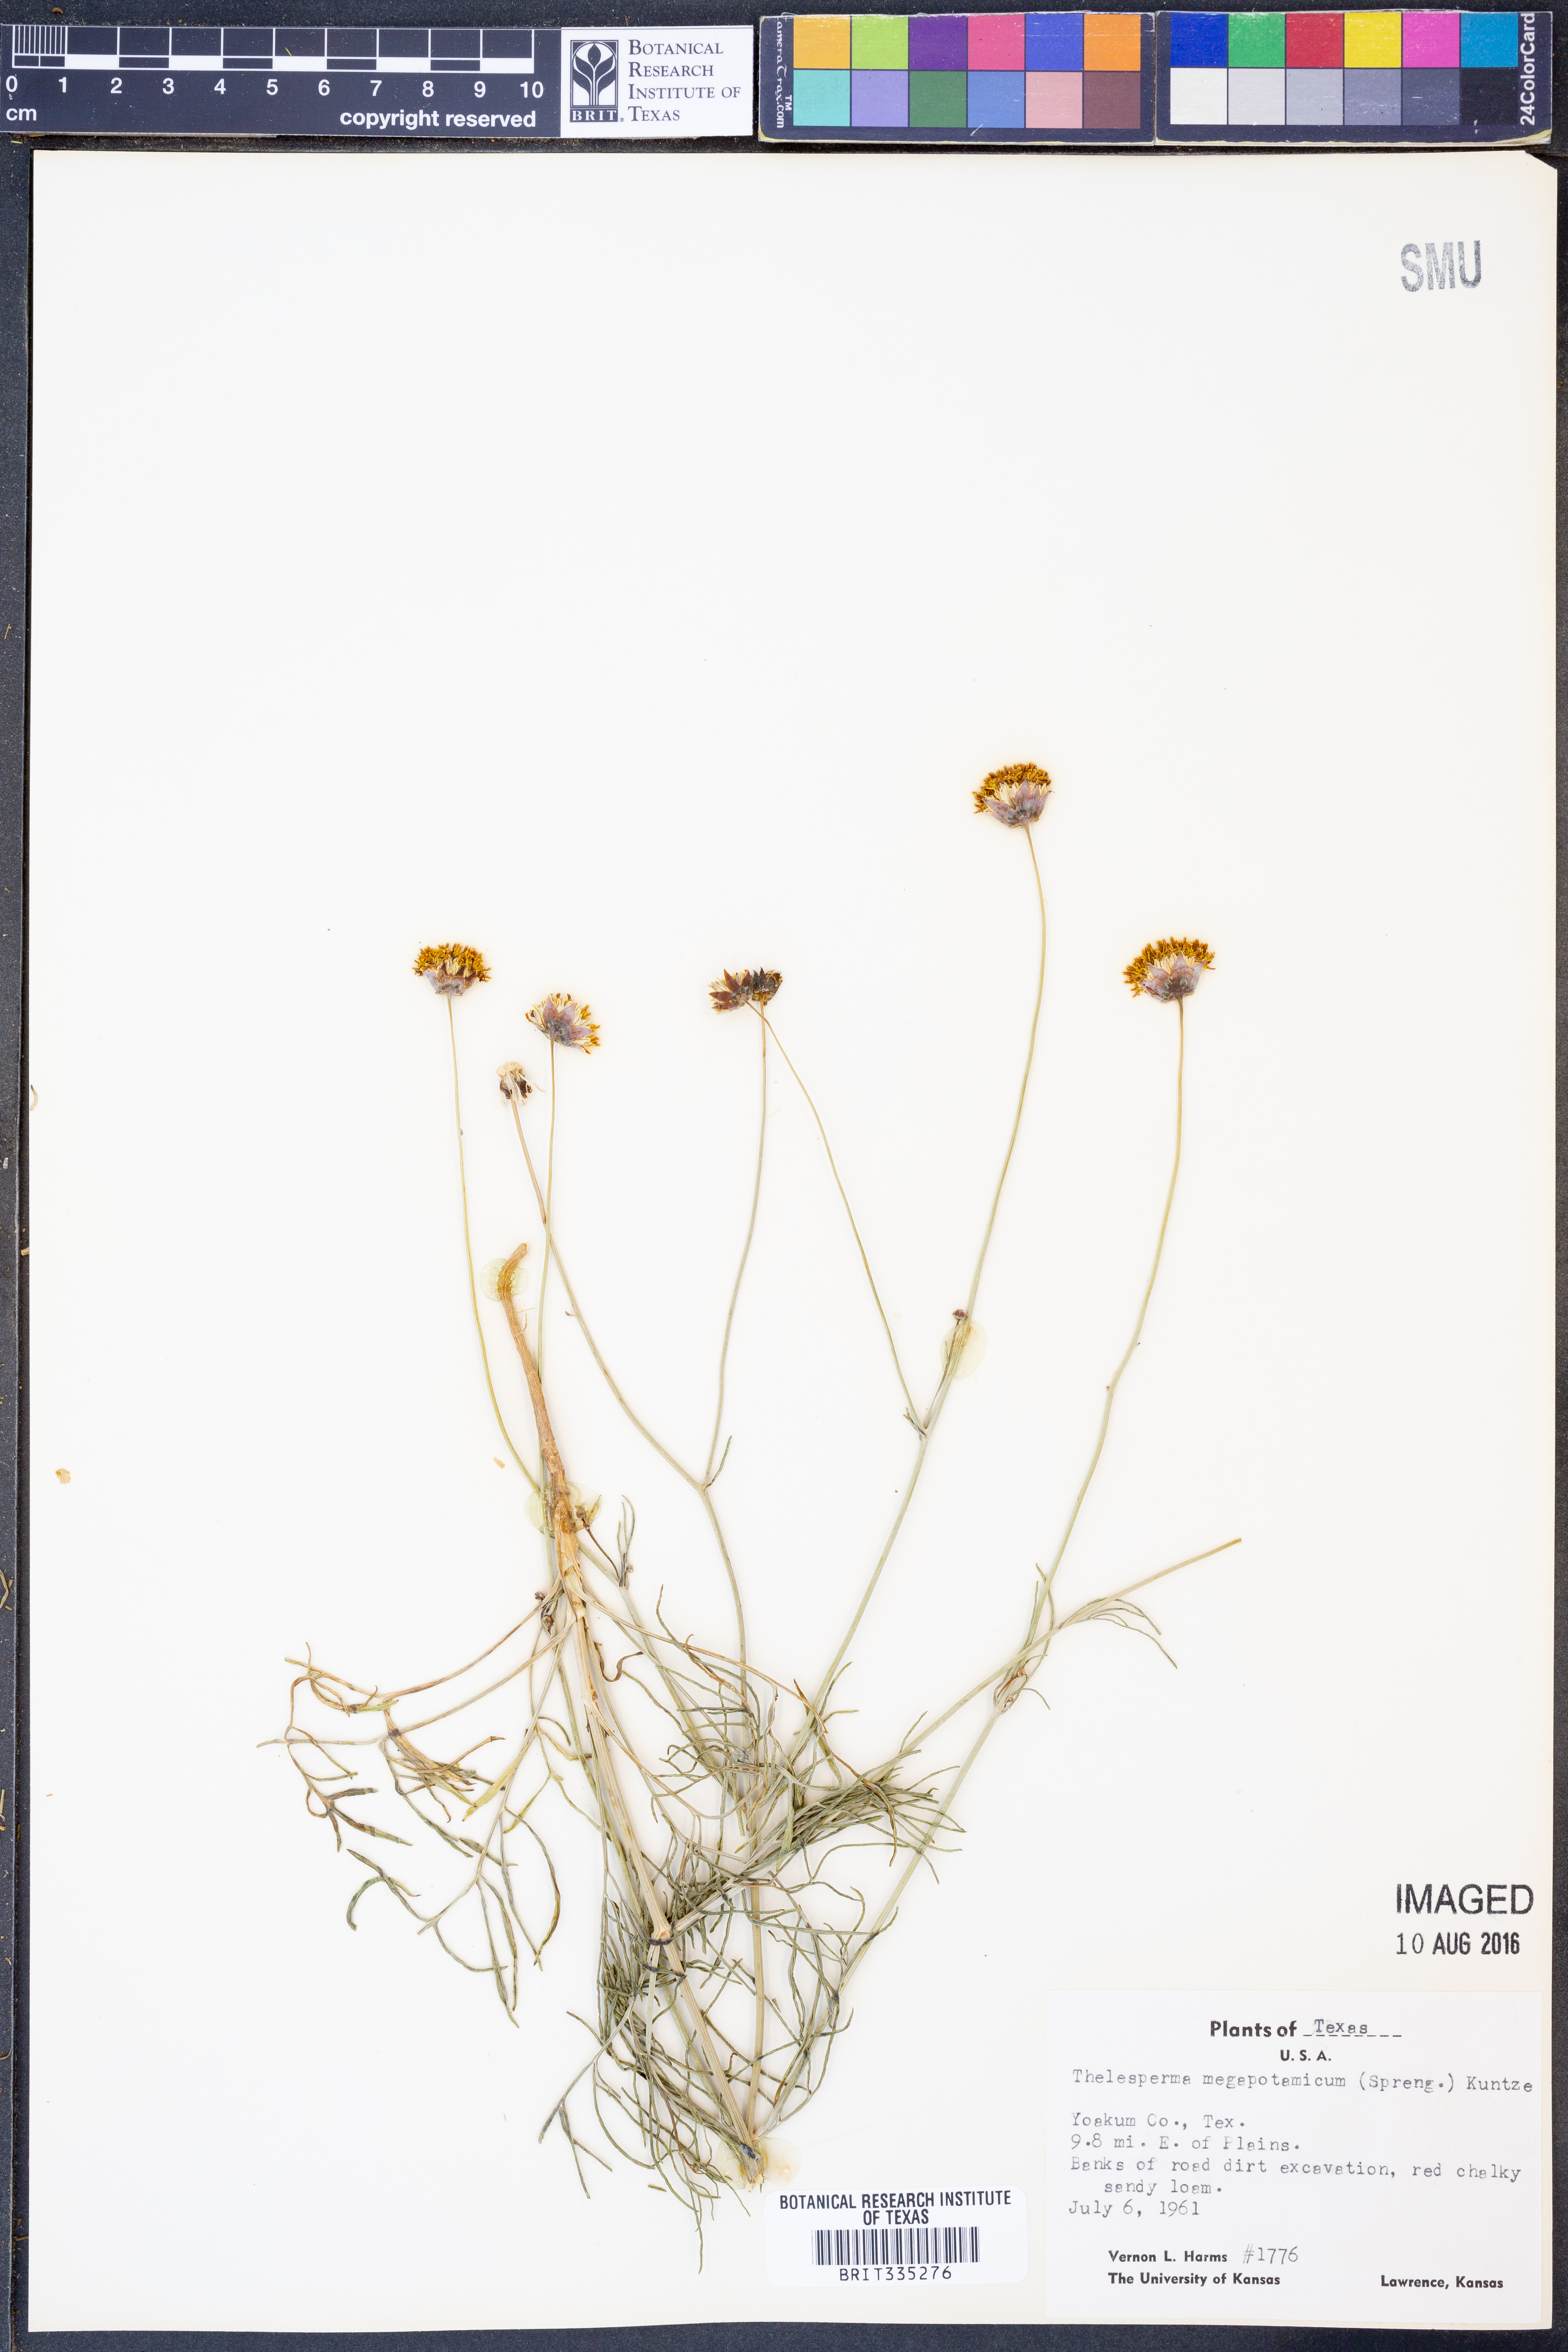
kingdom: Plantae
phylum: Tracheophyta
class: Magnoliopsida
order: Asterales
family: Asteraceae
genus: Thelesperma
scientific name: Thelesperma megapotamicum
